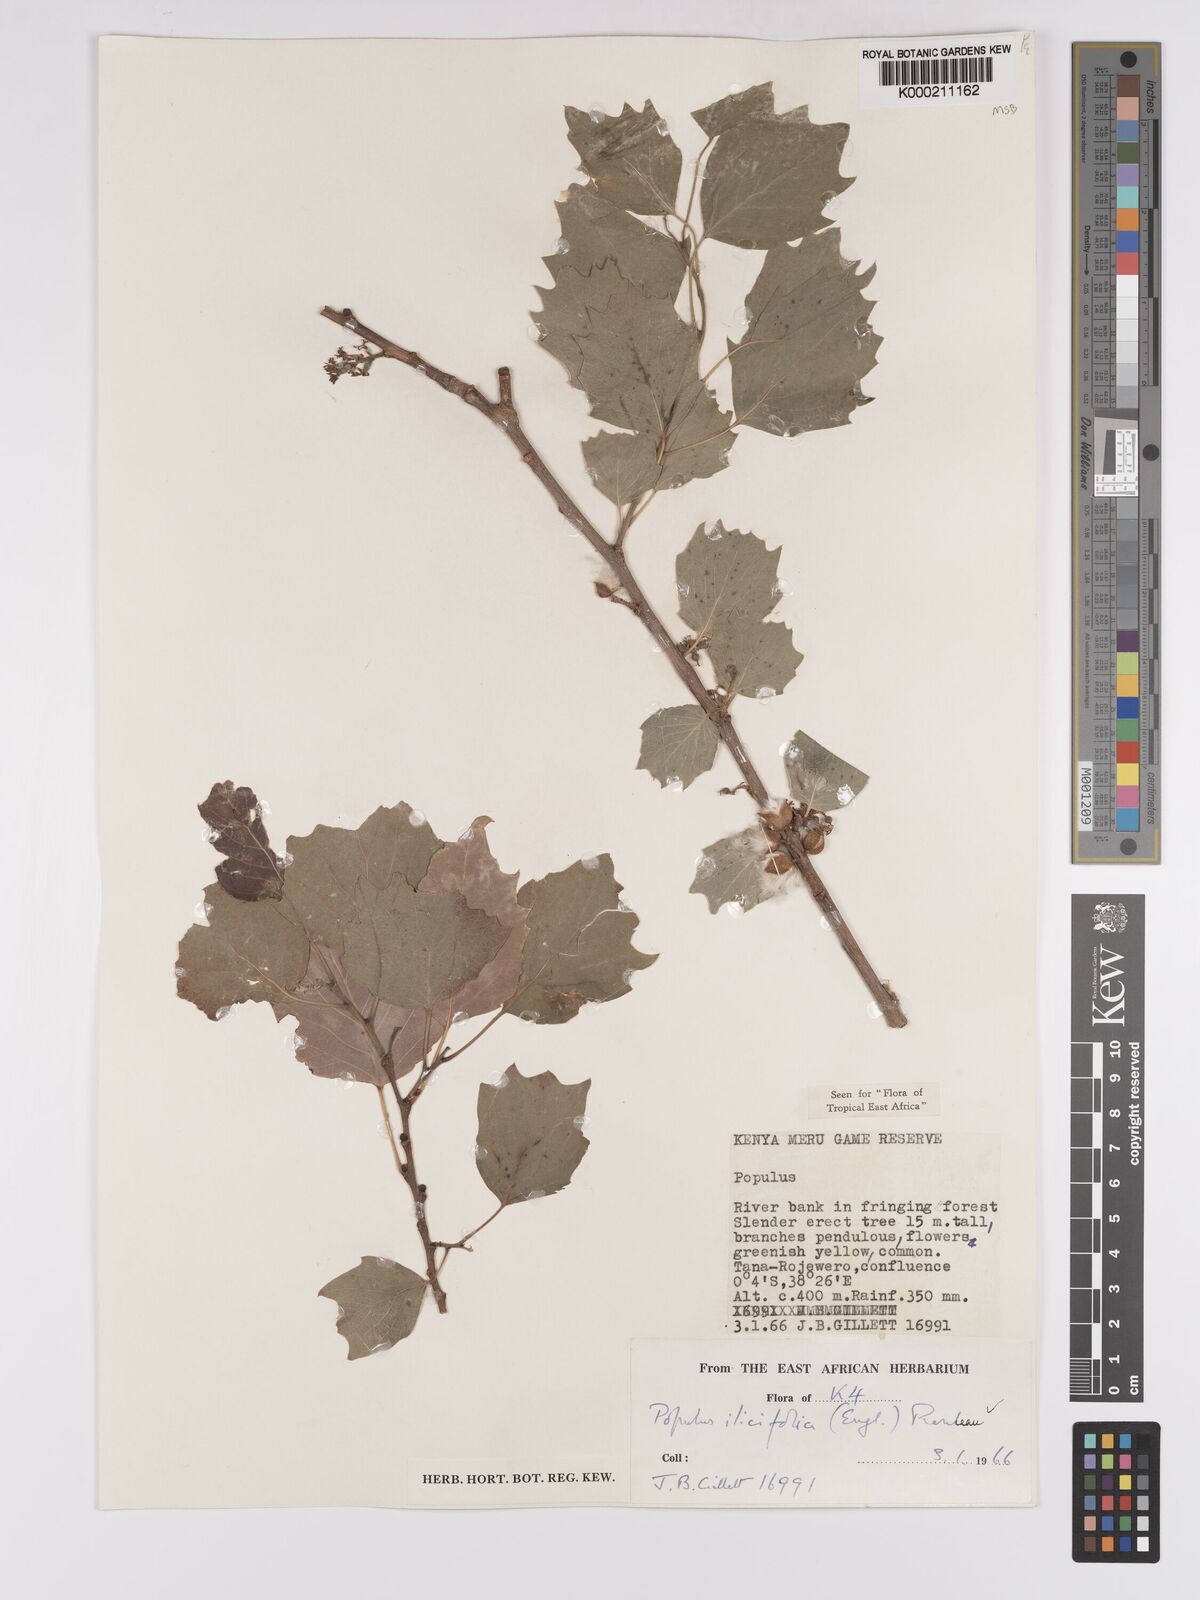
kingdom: Plantae
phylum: Tracheophyta
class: Magnoliopsida
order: Malpighiales
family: Salicaceae
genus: Populus
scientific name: Populus ilicifolia
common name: Tana river poplar
